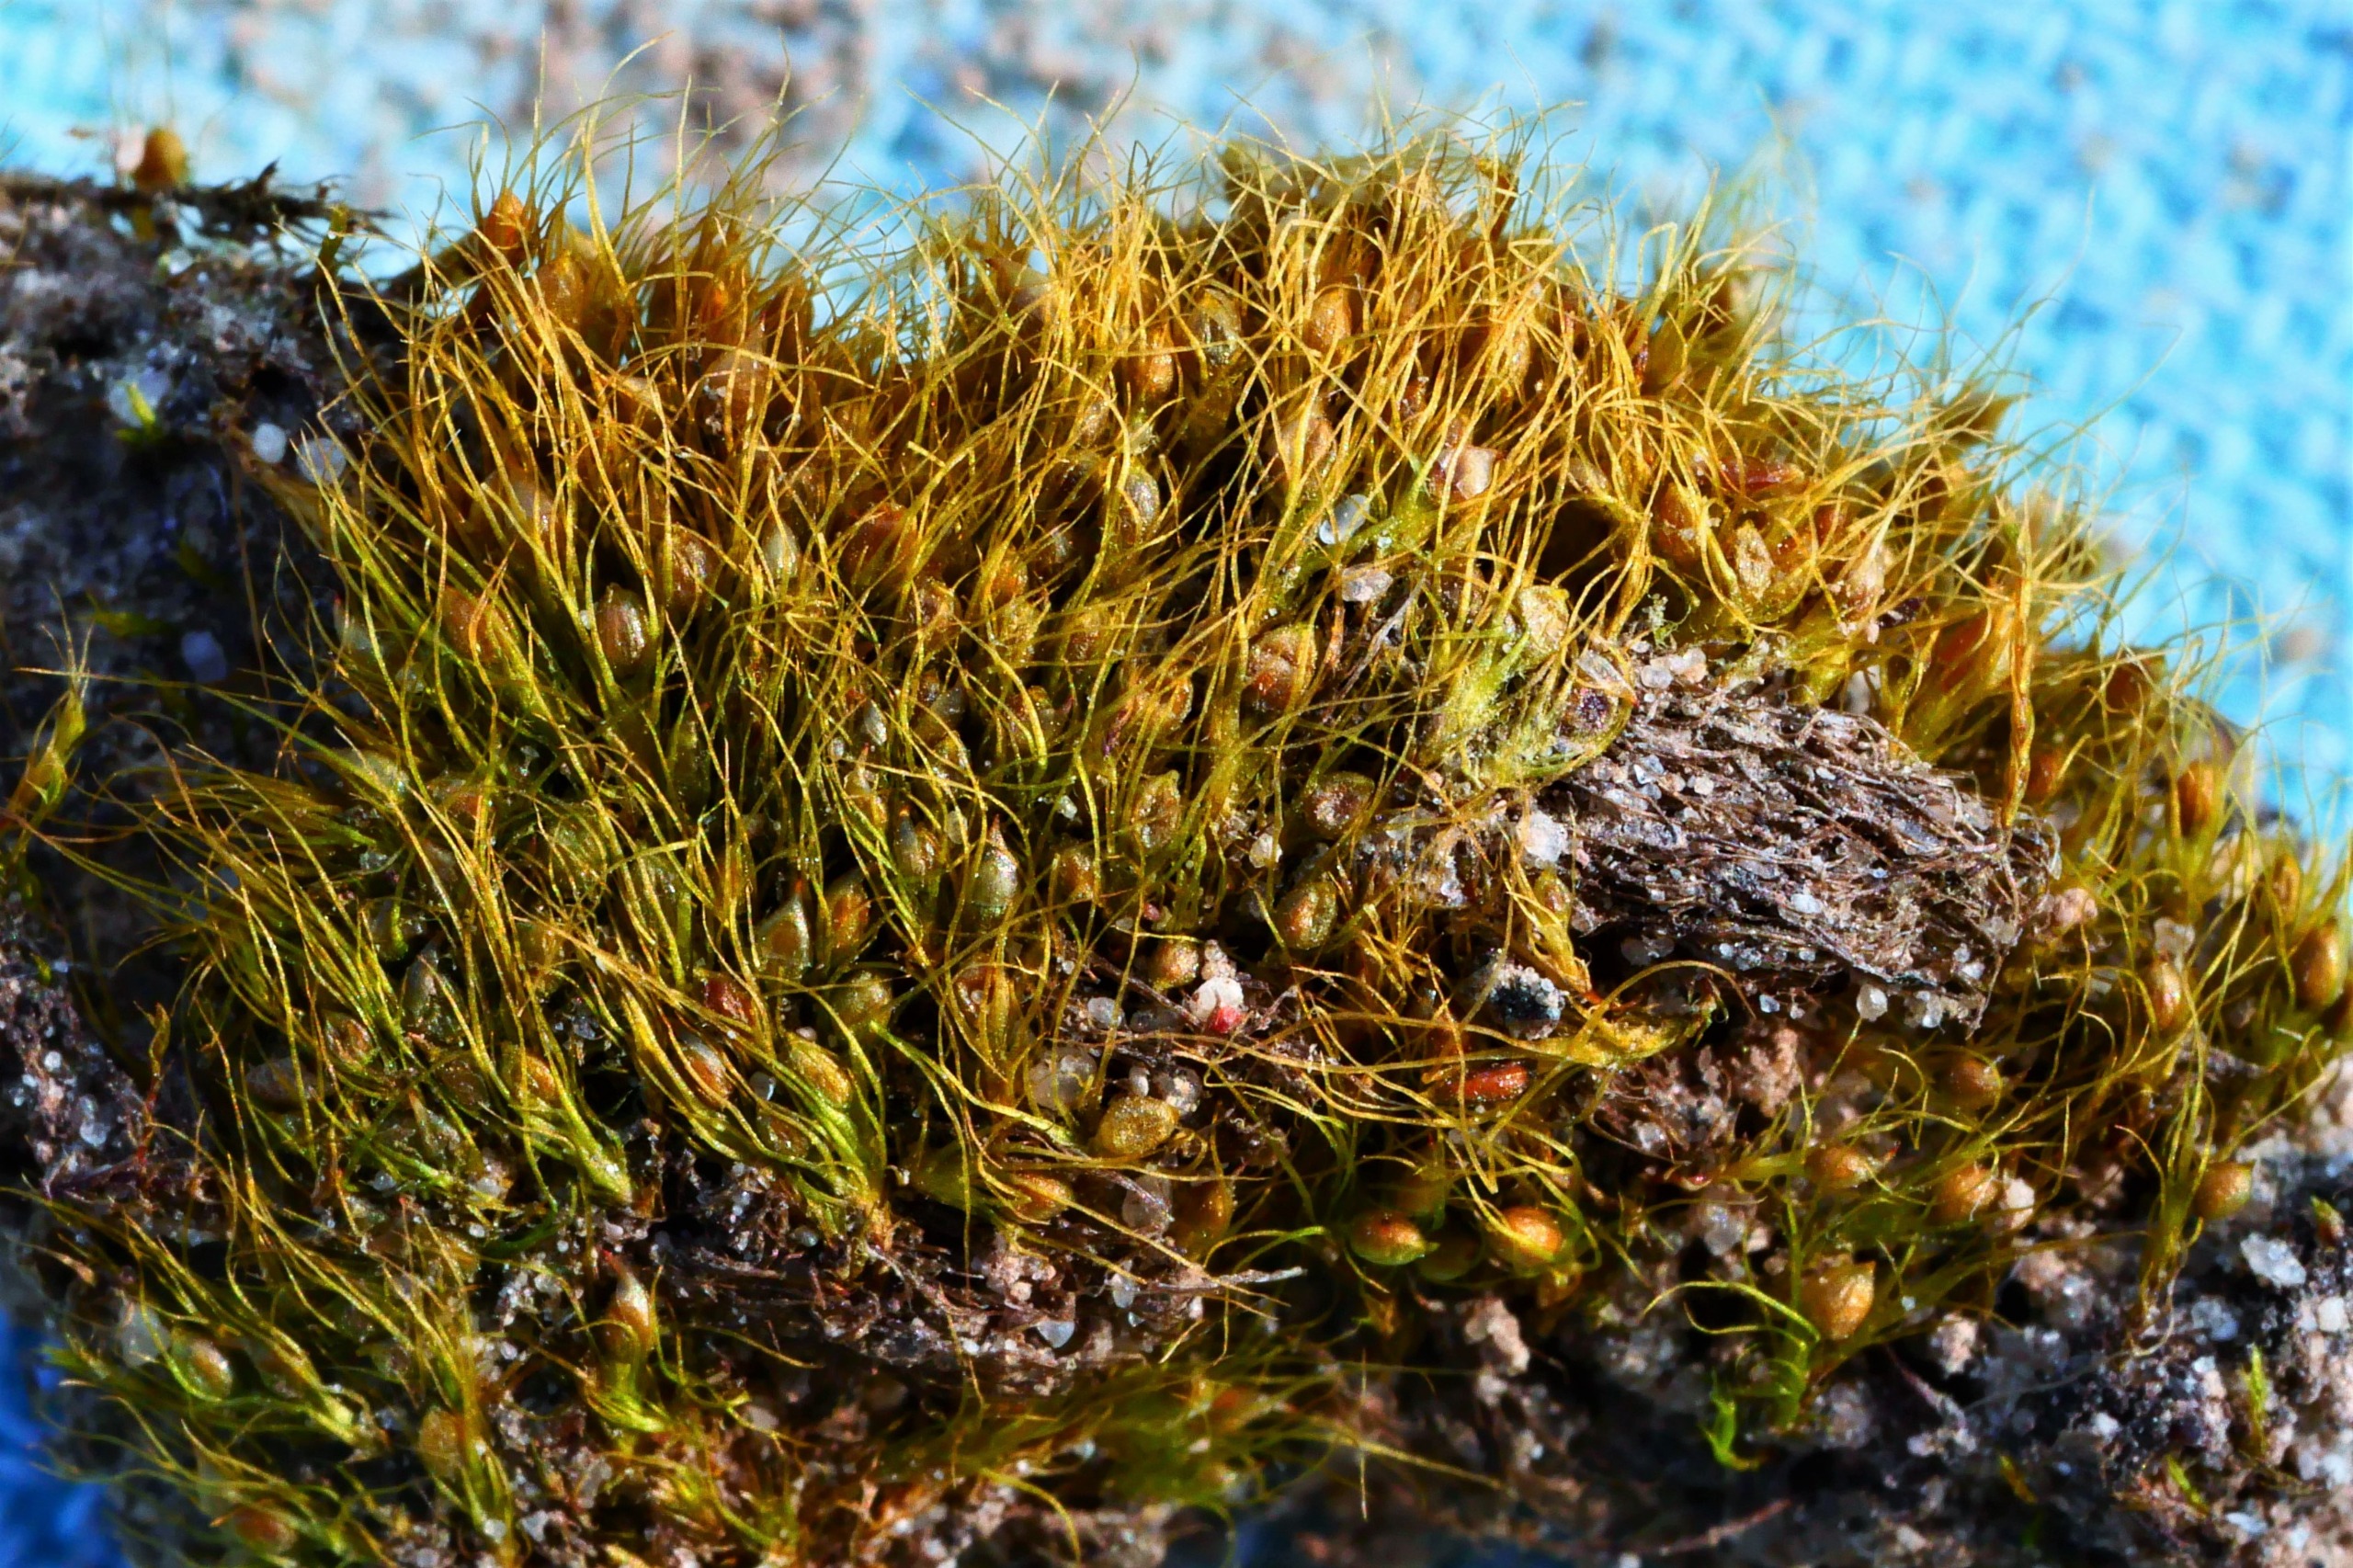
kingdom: Plantae
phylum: Bryophyta
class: Bryopsida
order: Dicranales
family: Ditrichaceae
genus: Pleuridium
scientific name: Pleuridium subulatum
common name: Kortstilket sylbladsmos
